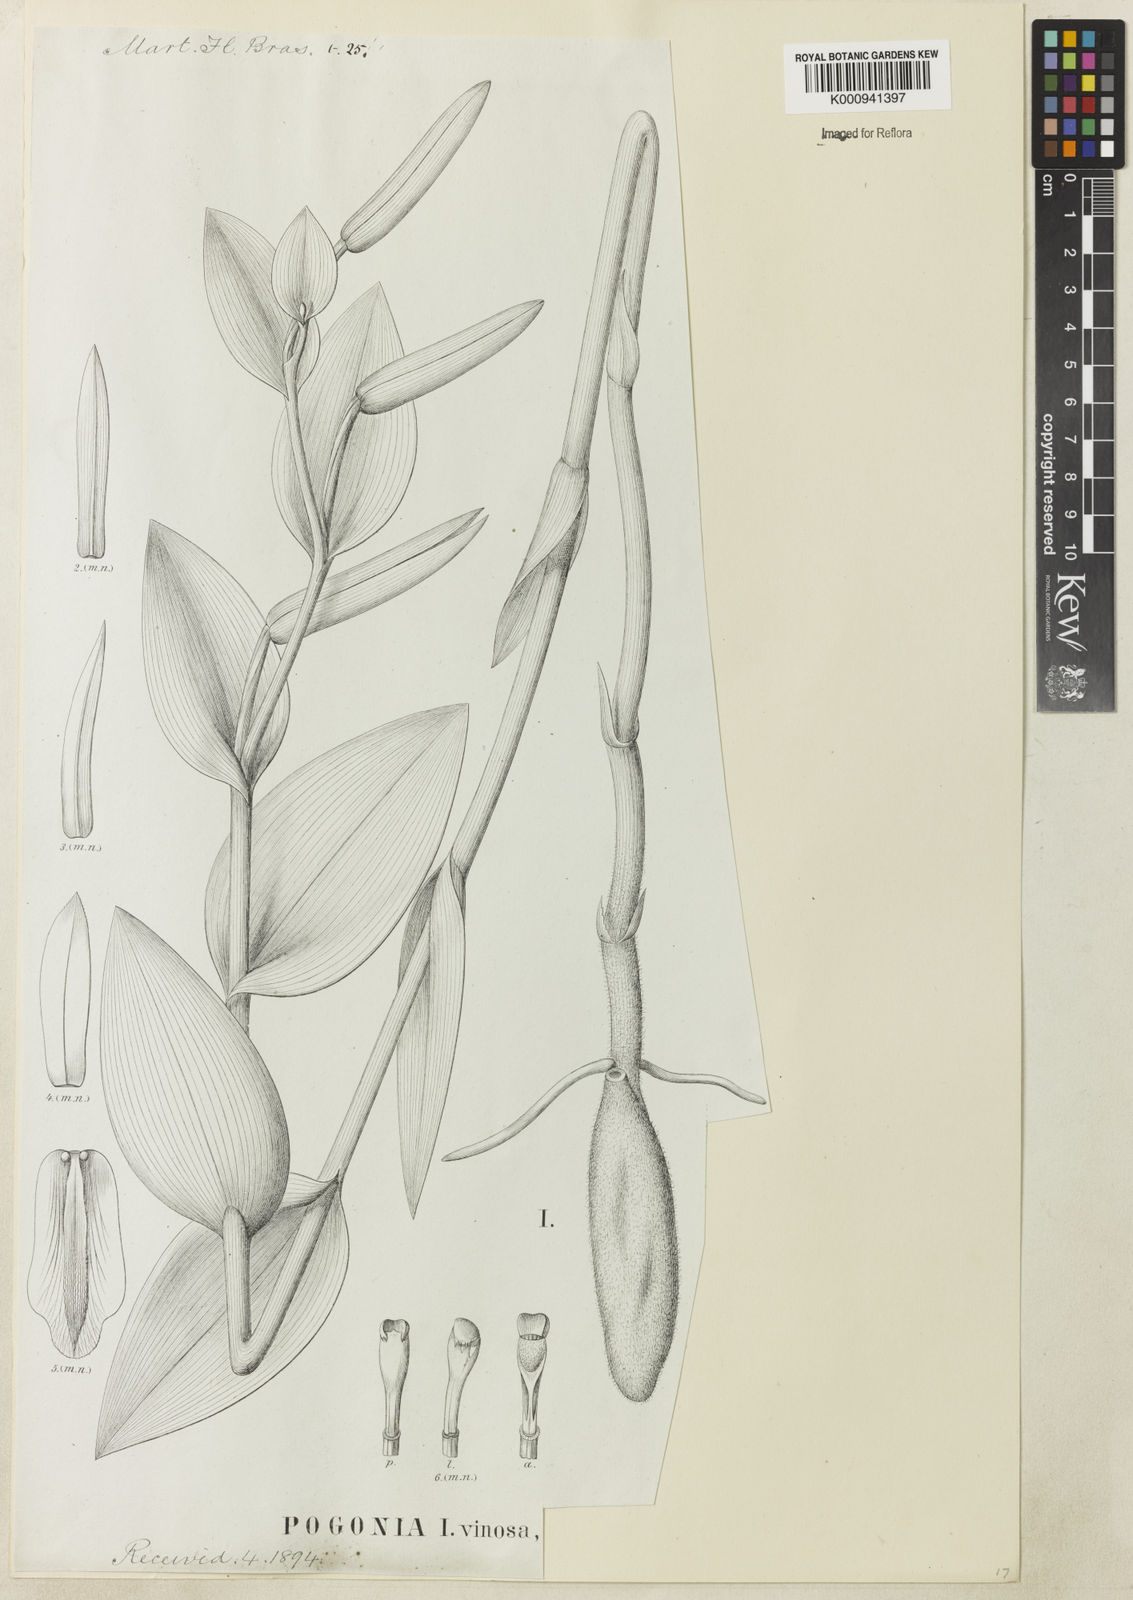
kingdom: Plantae
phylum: Tracheophyta
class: Liliopsida
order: Asparagales
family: Orchidaceae
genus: Cleistes
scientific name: Cleistes libonii
